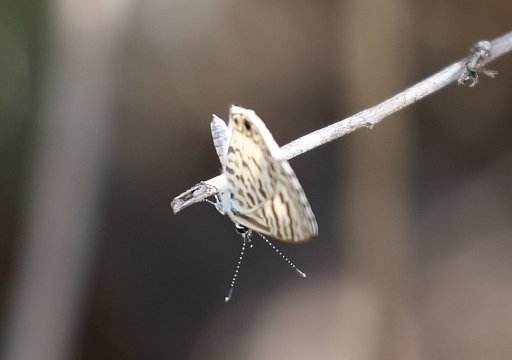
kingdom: Animalia
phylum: Arthropoda
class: Insecta
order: Lepidoptera
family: Lycaenidae
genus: Leptotes
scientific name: Leptotes cassius
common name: Cassius Blue
